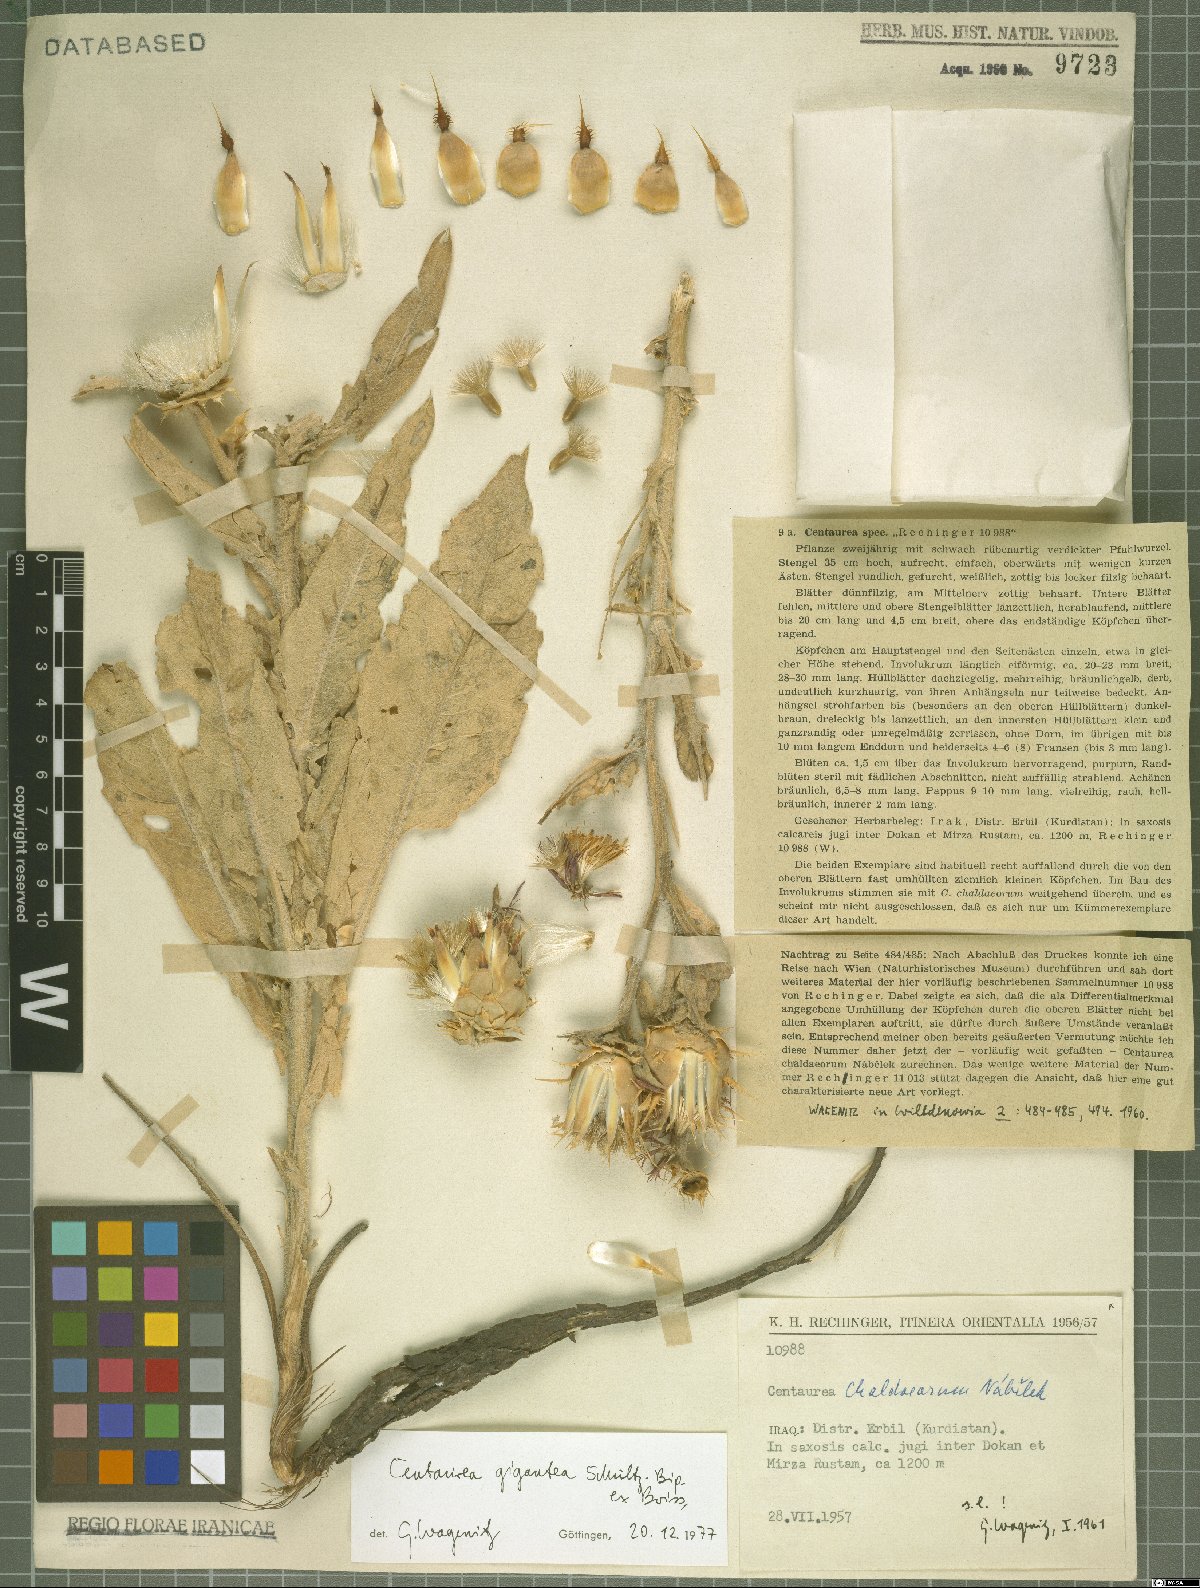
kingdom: Plantae
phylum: Tracheophyta
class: Magnoliopsida
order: Asterales
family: Asteraceae
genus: Centaurea
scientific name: Centaurea gigantea
